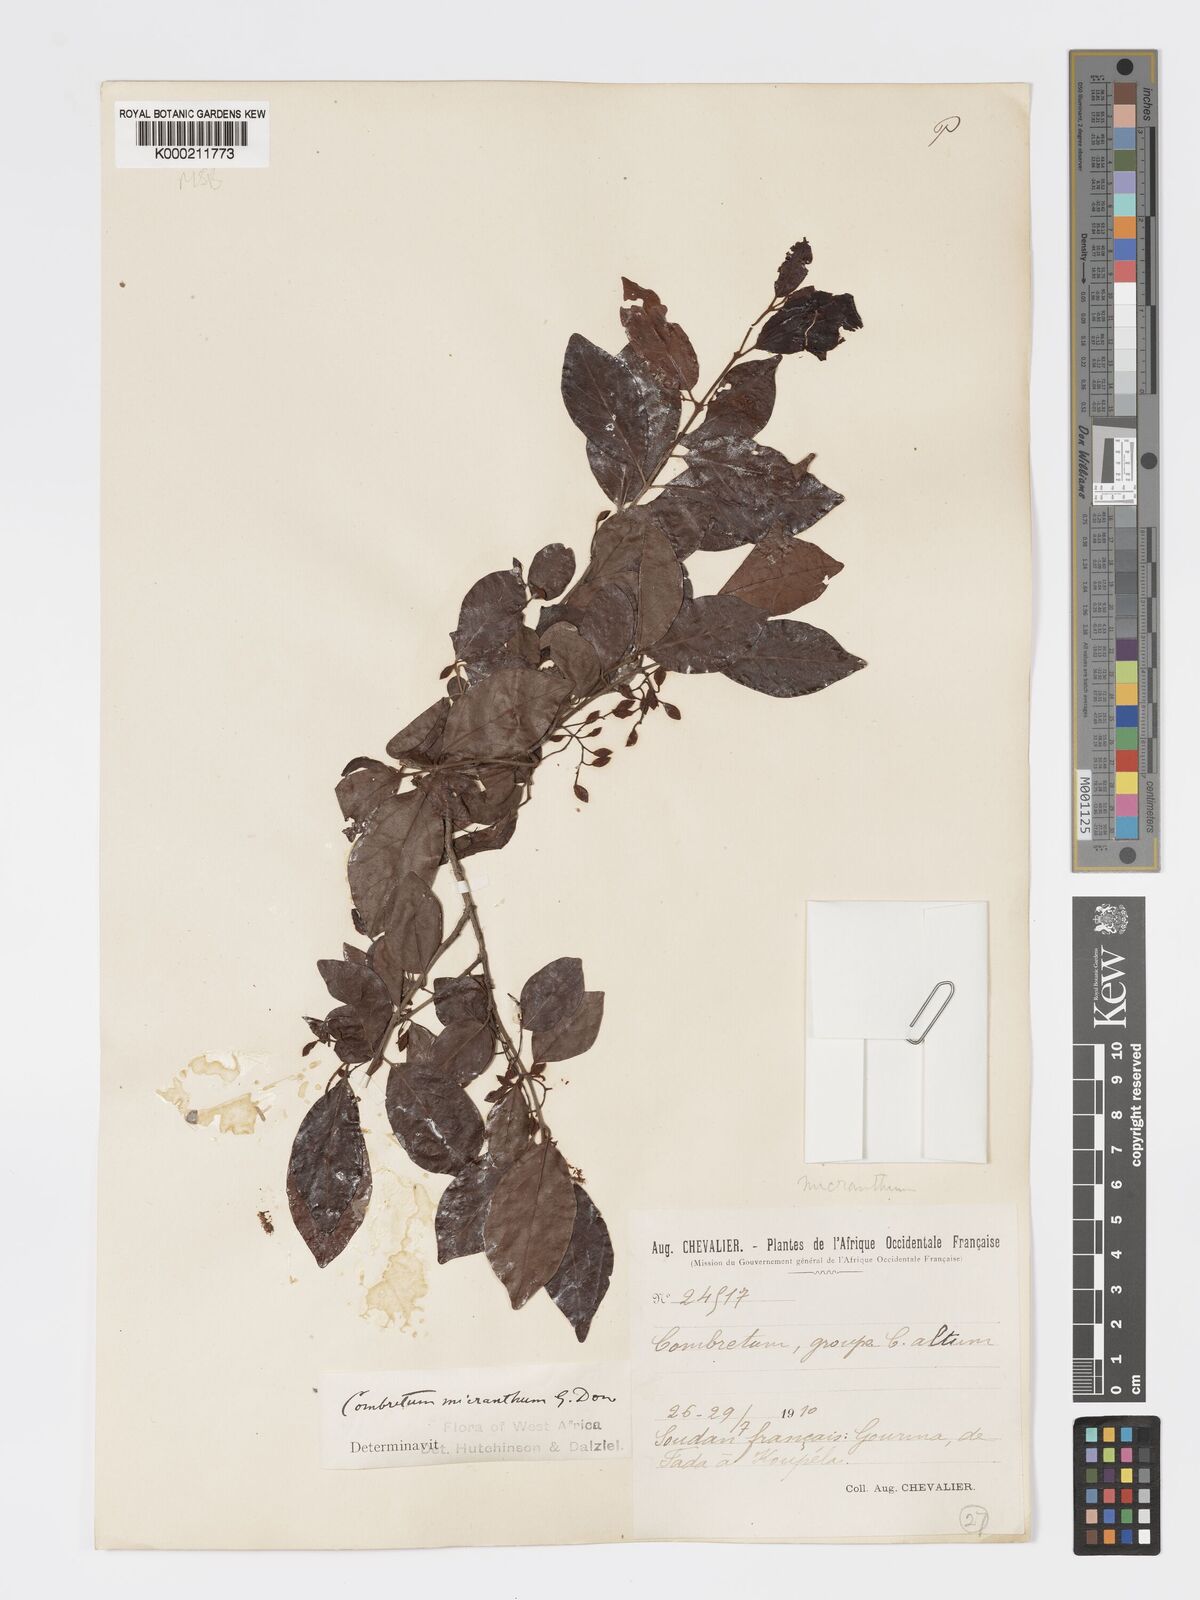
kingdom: Plantae
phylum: Tracheophyta
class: Magnoliopsida
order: Myrtales
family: Combretaceae
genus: Combretum
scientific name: Combretum micranthum
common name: Opium-antidote
